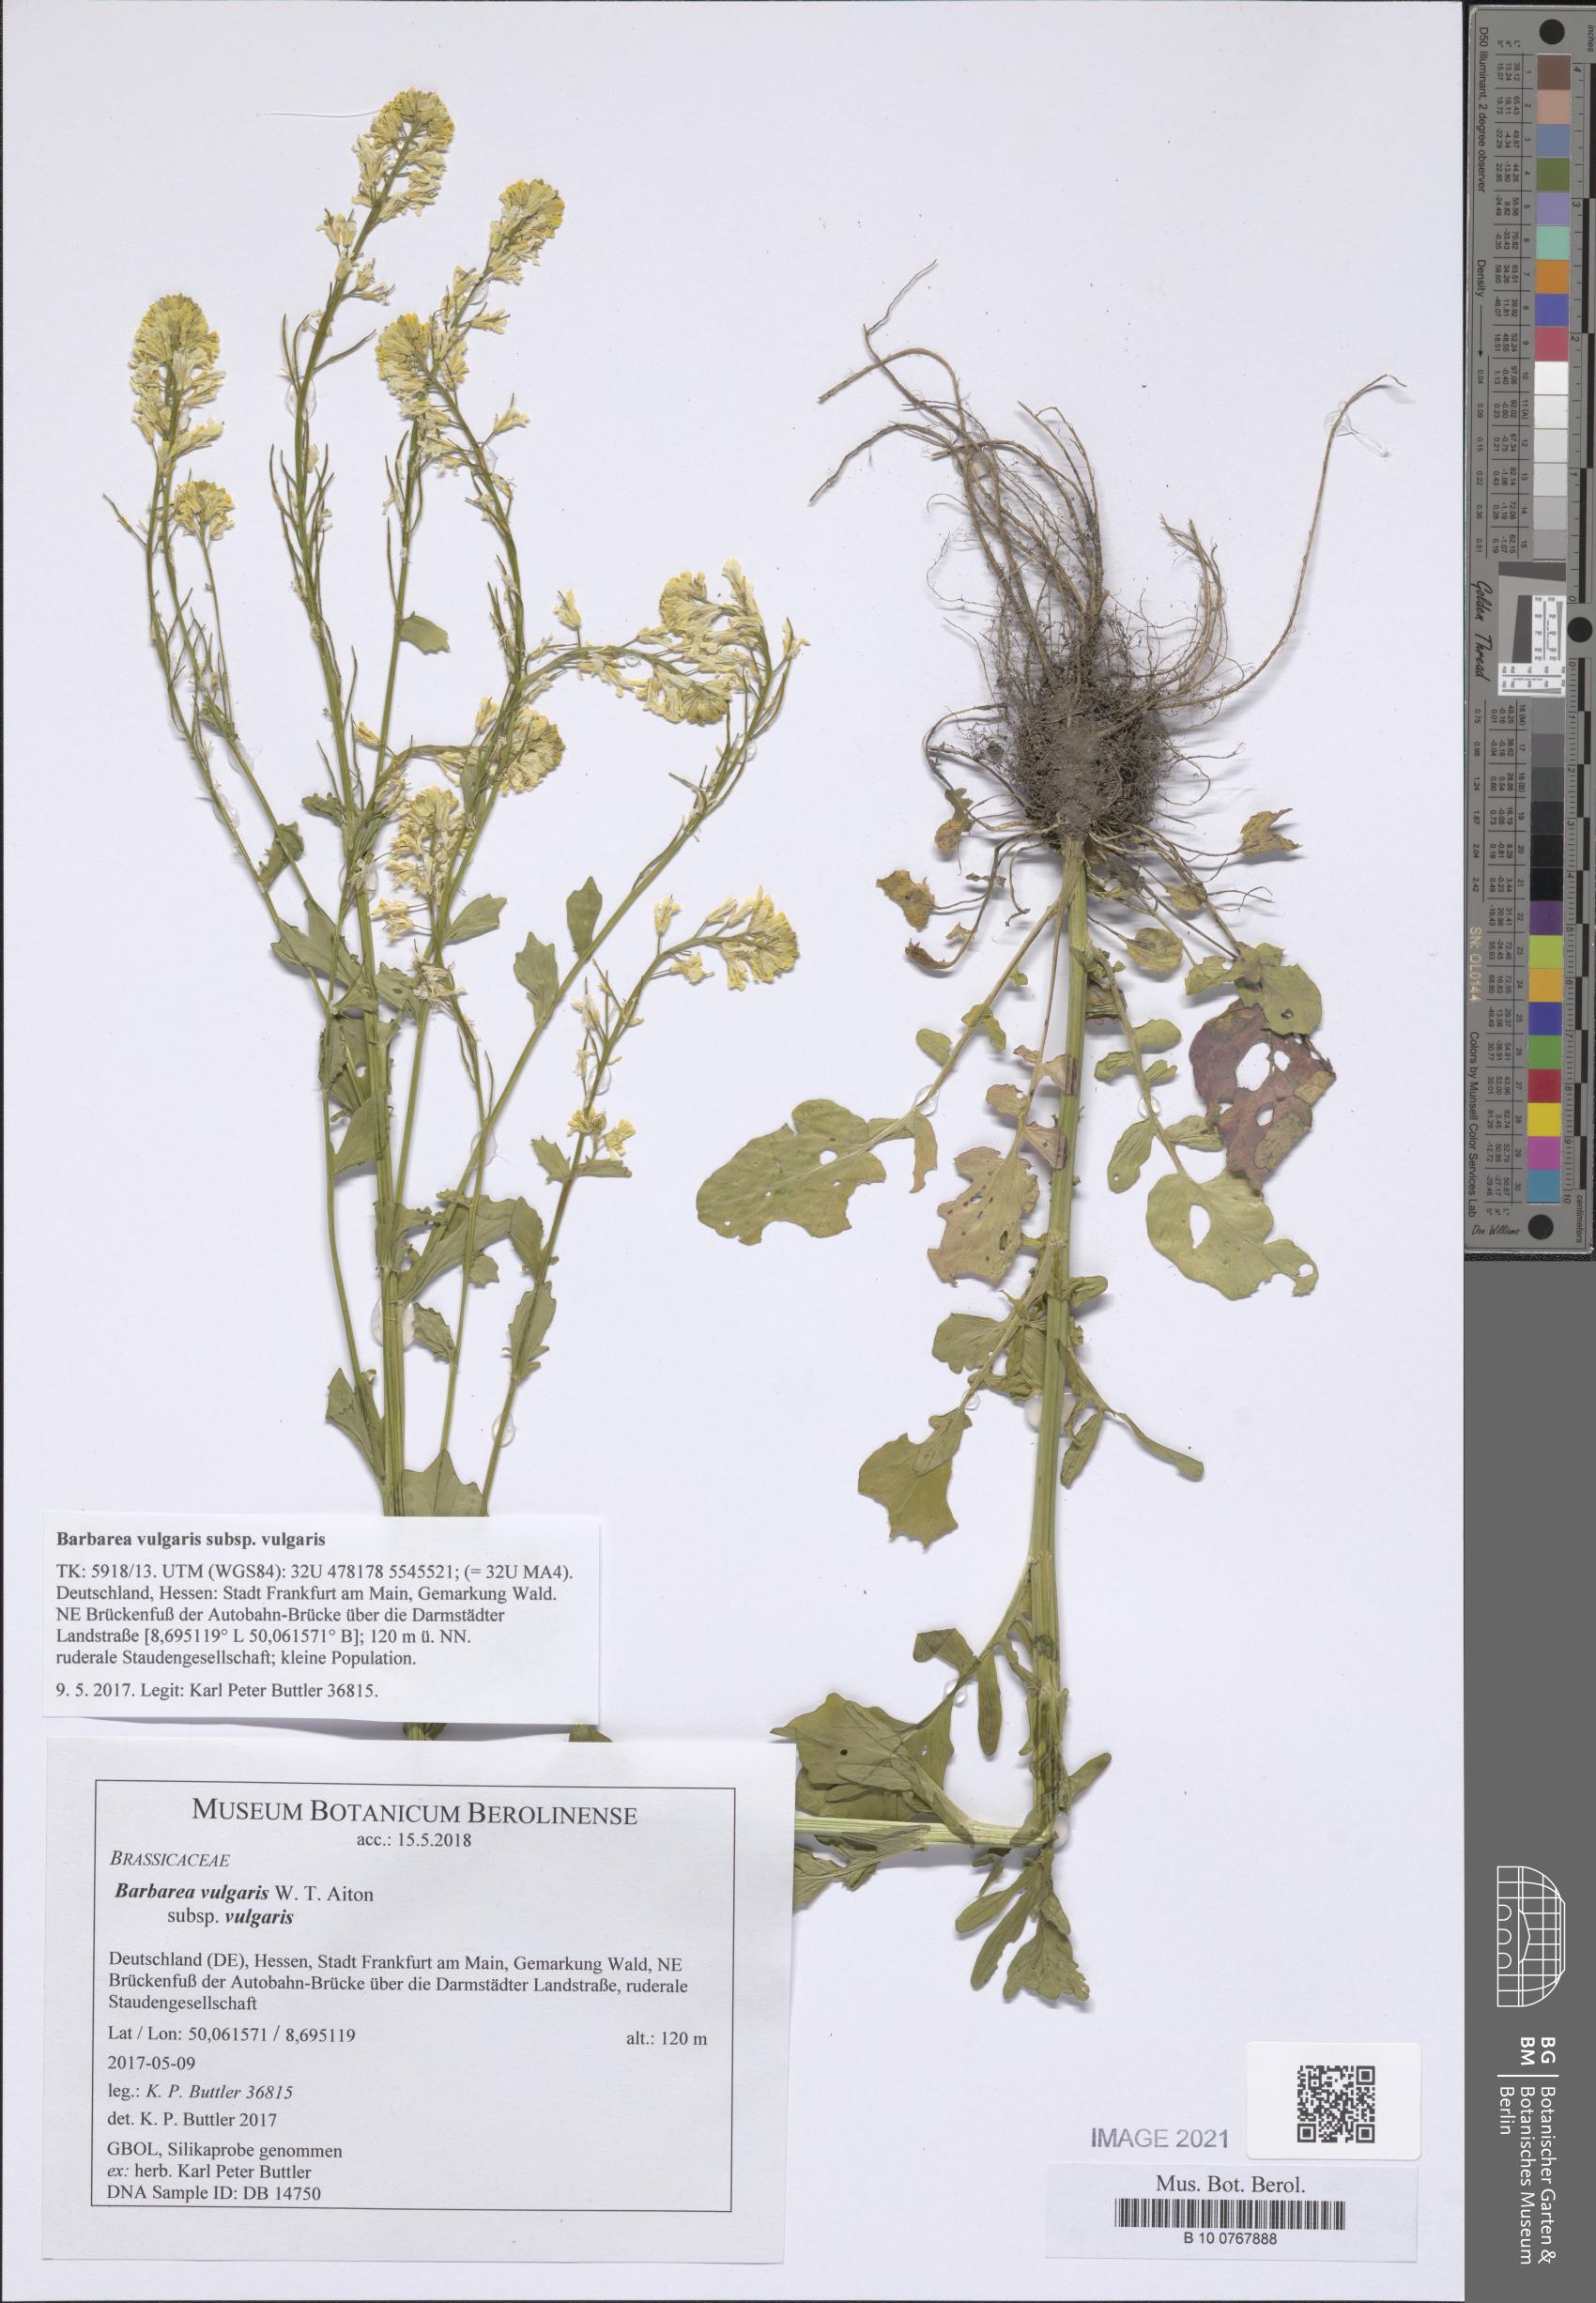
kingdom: Plantae
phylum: Tracheophyta
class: Magnoliopsida
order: Brassicales
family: Brassicaceae
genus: Barbarea
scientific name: Barbarea vulgaris
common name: Cressy-greens
